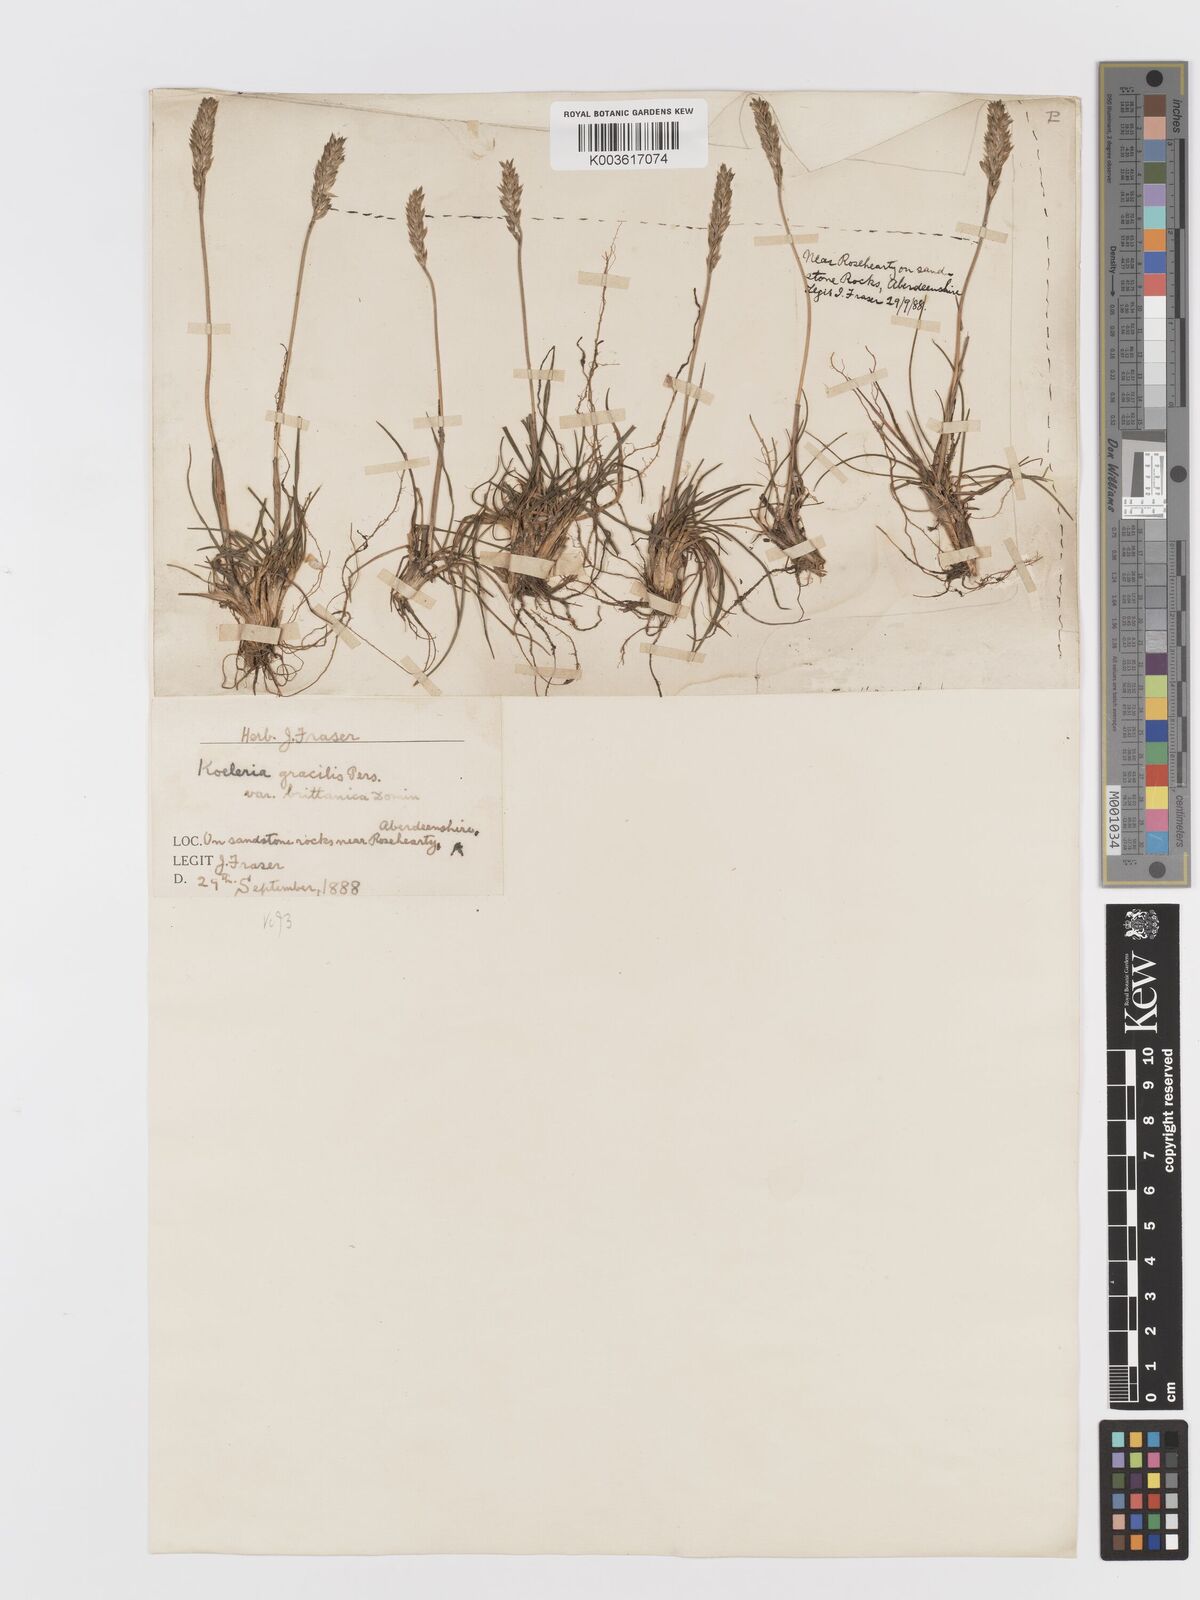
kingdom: Plantae
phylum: Tracheophyta
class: Liliopsida
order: Poales
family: Poaceae
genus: Koeleria
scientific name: Koeleria macrantha
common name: Crested hair-grass
